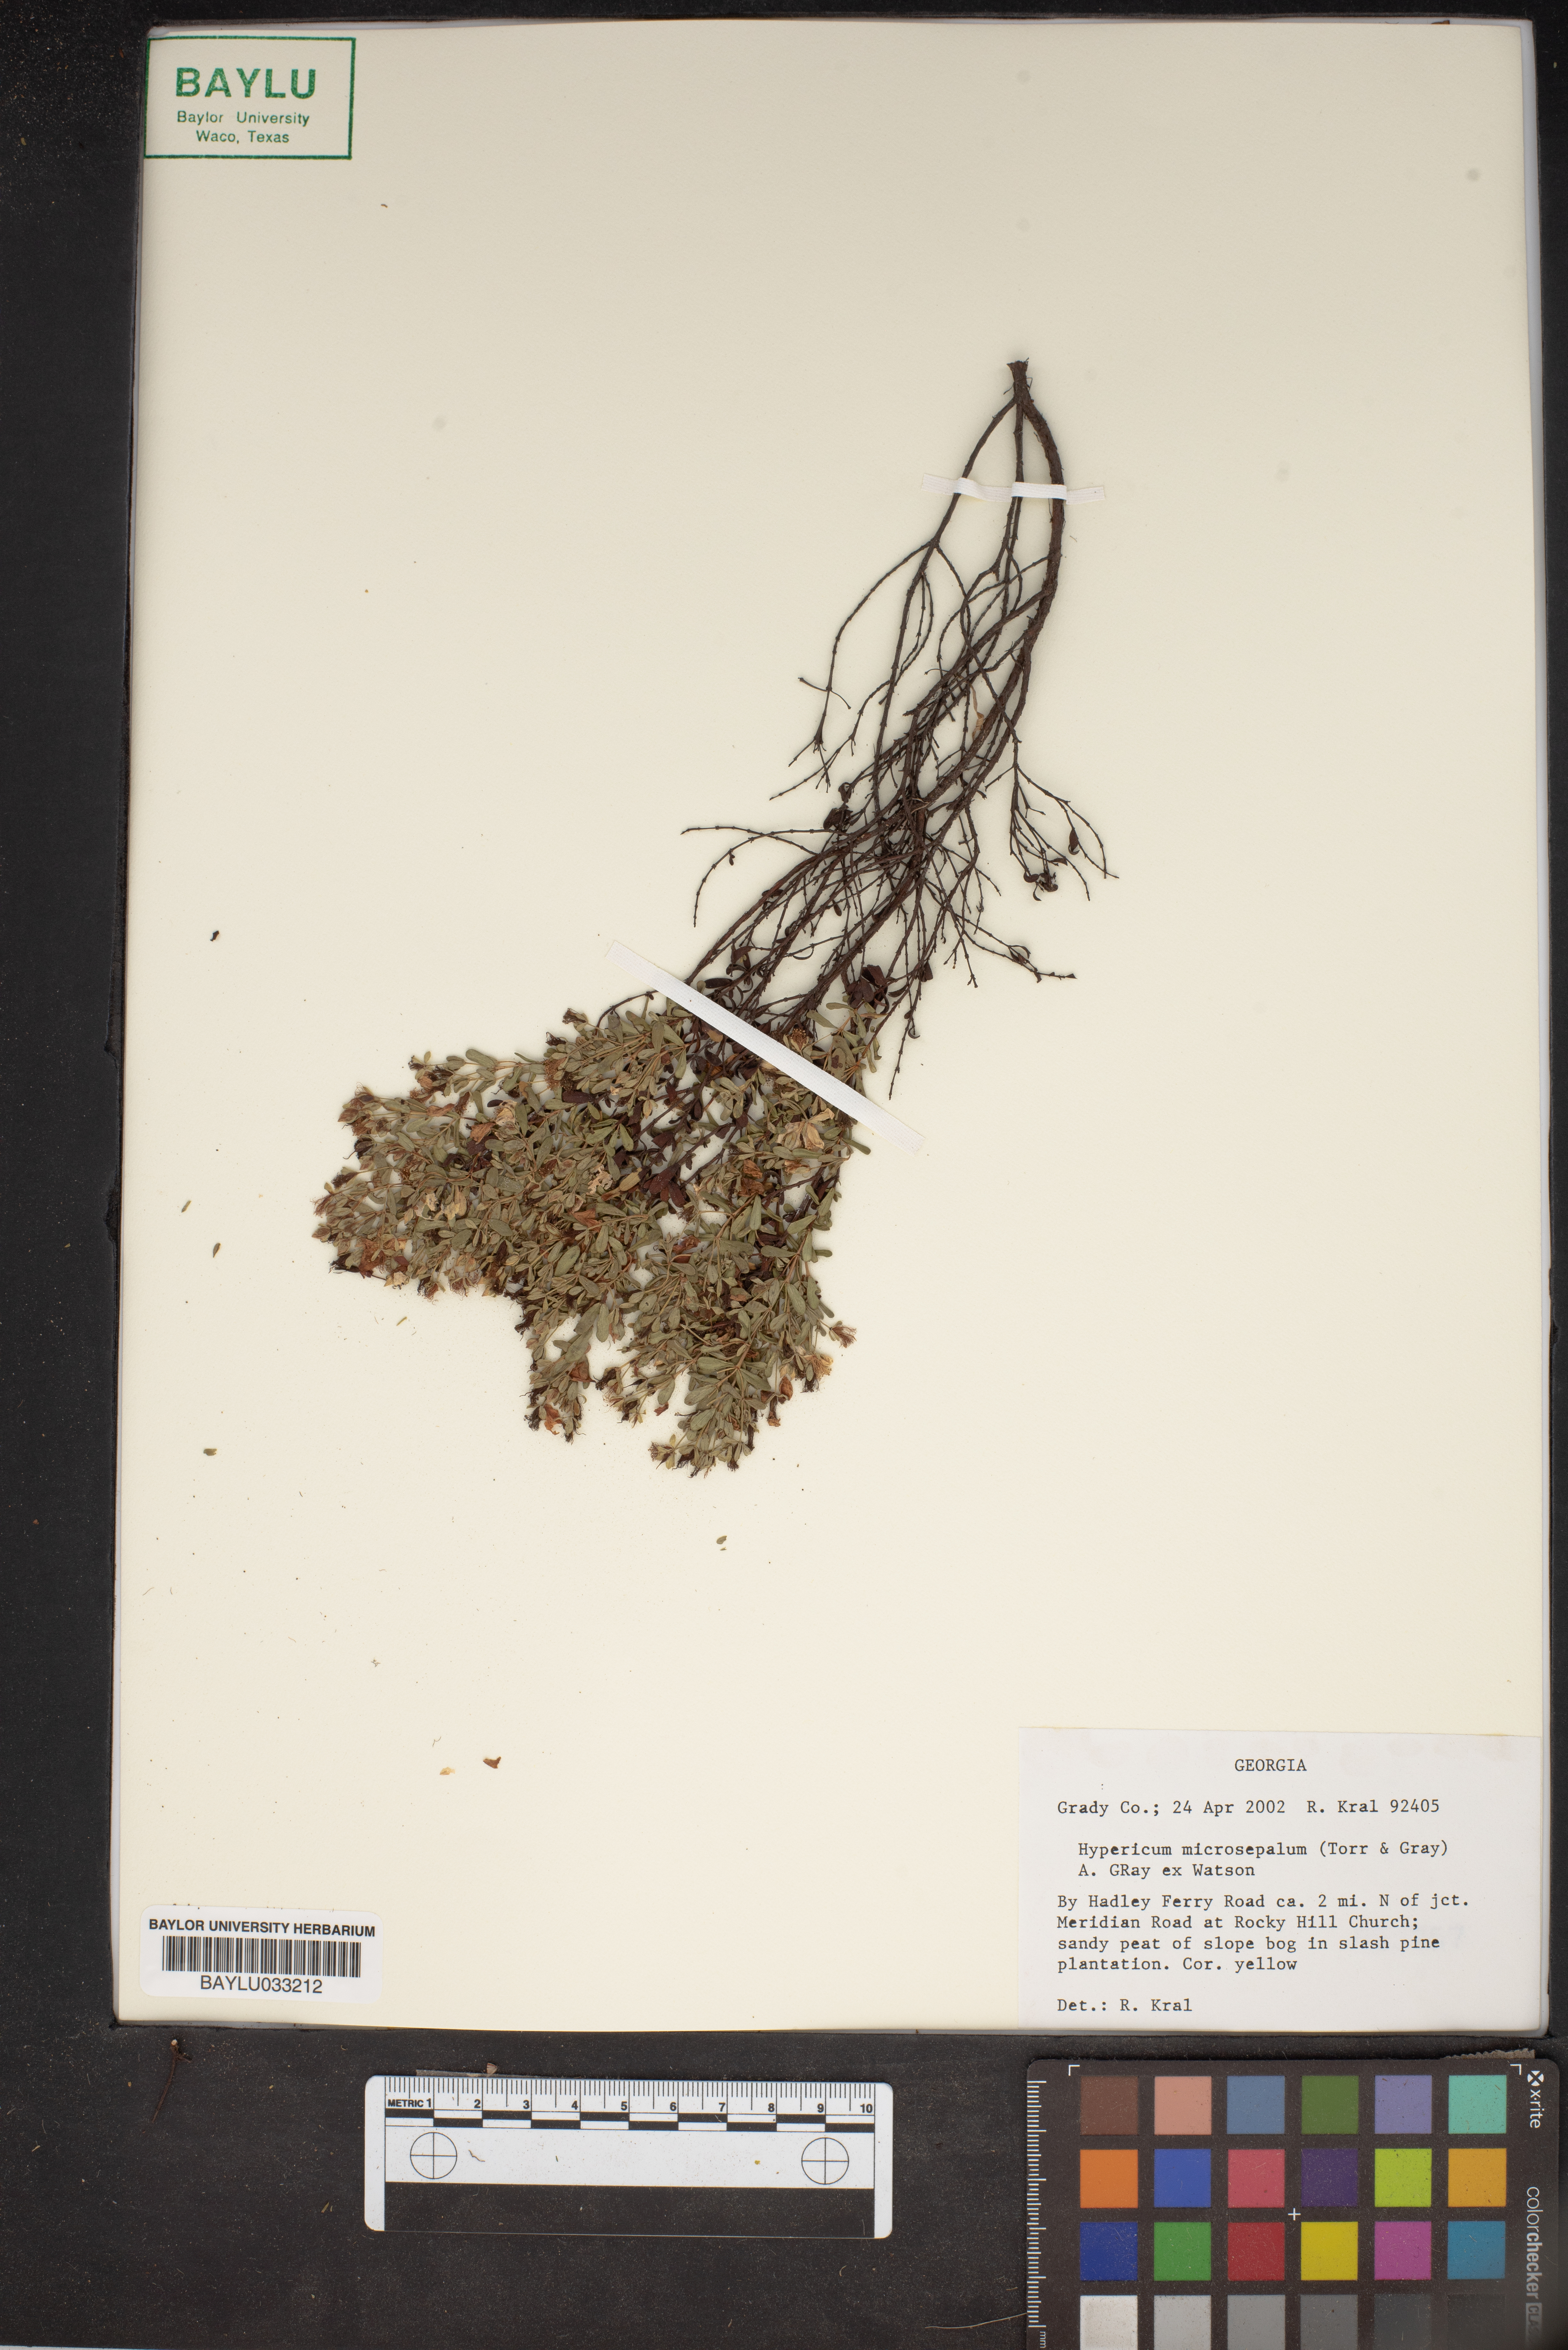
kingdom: Plantae
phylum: Tracheophyta
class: Magnoliopsida
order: Malpighiales
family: Hypericaceae
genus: Hypericum
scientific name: Hypericum microsepalum
